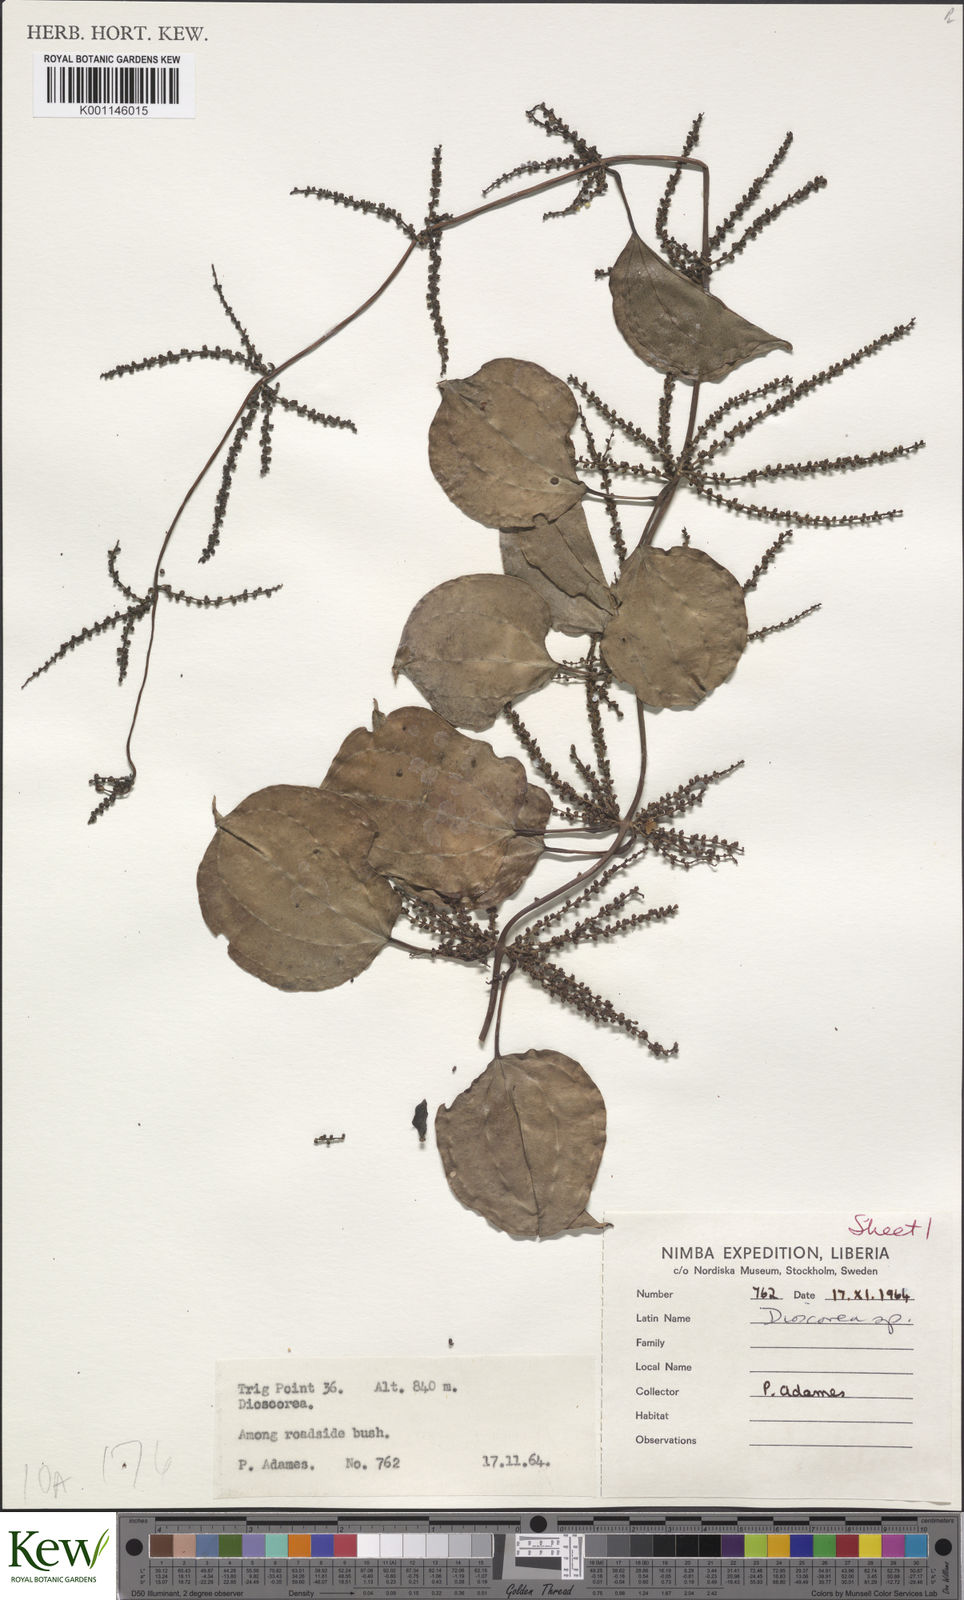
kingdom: Plantae
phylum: Tracheophyta
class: Liliopsida
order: Dioscoreales
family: Dioscoreaceae
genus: Dioscorea
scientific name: Dioscorea minutiflora
